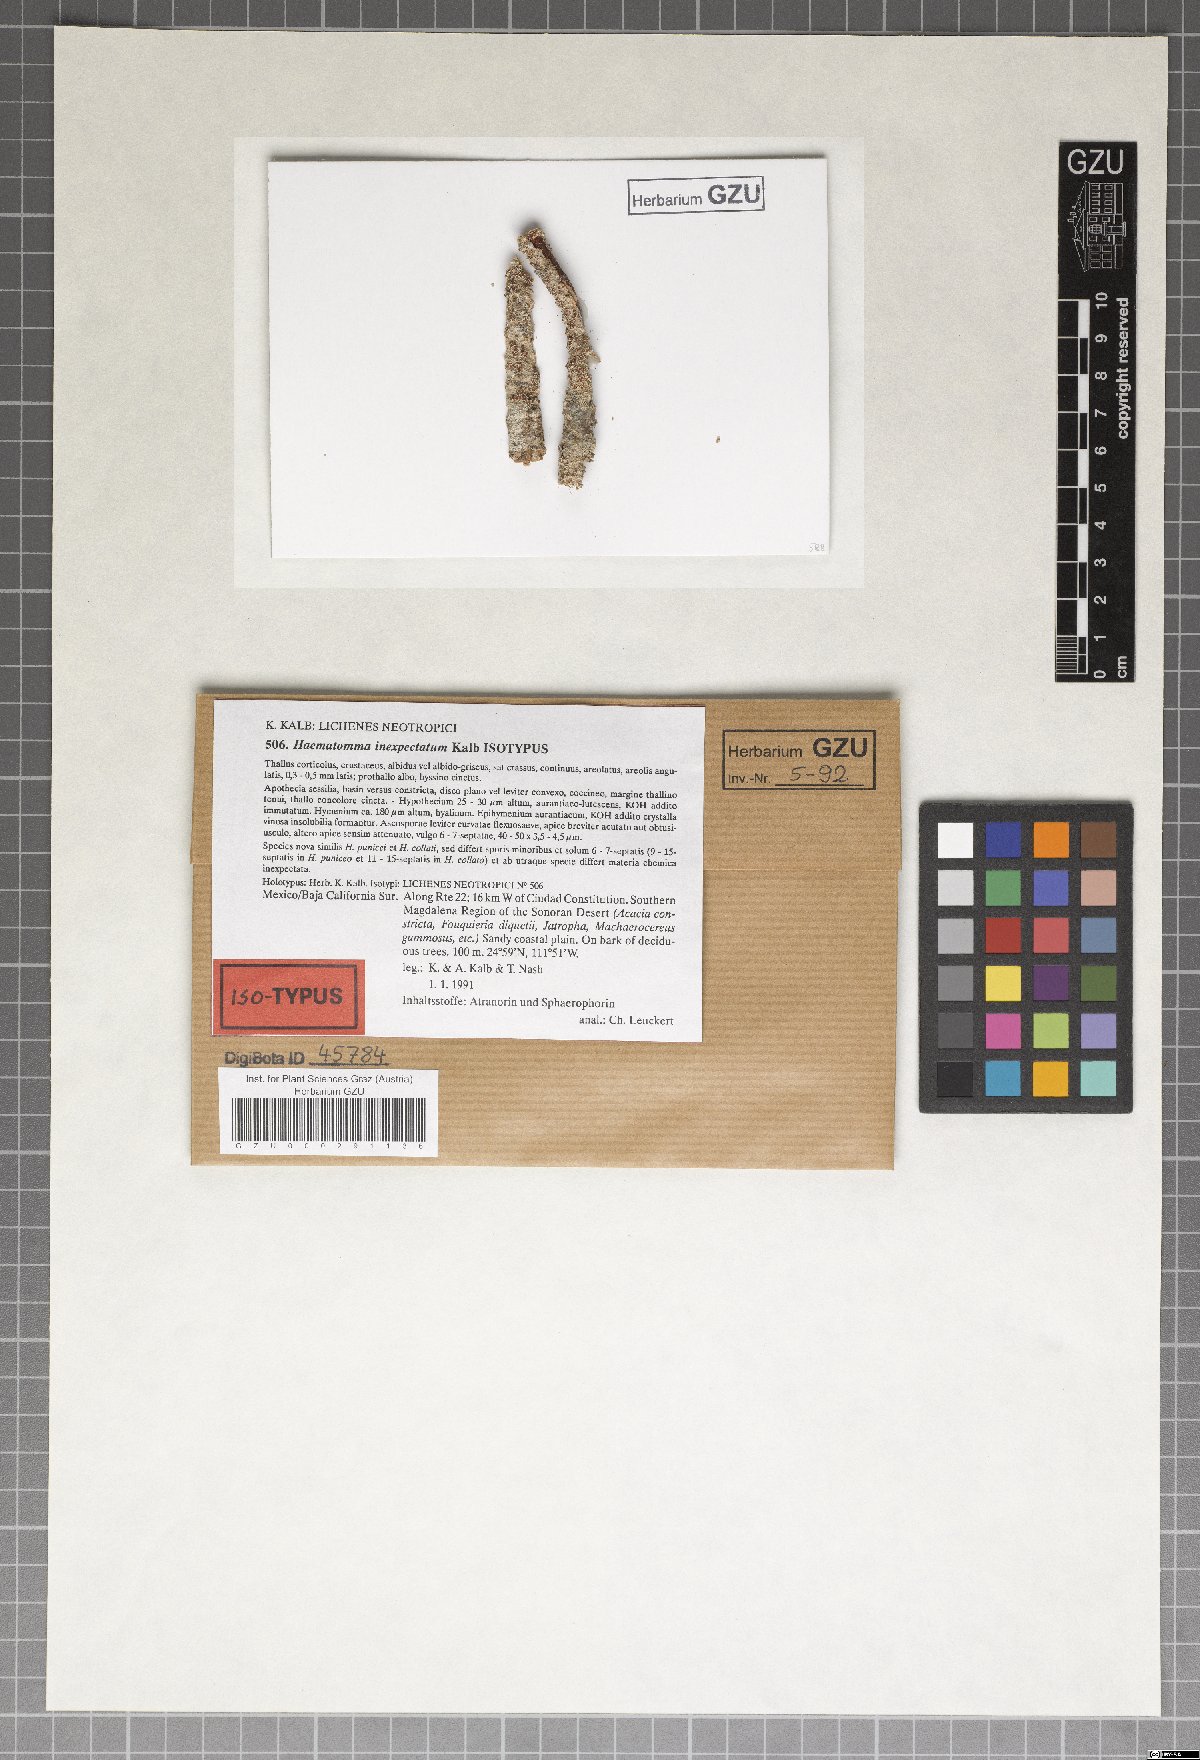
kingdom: Fungi
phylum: Ascomycota
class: Lecanoromycetes
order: Lecanorales
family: Haematommataceae
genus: Haematomma
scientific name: Haematomma inexpectatum
